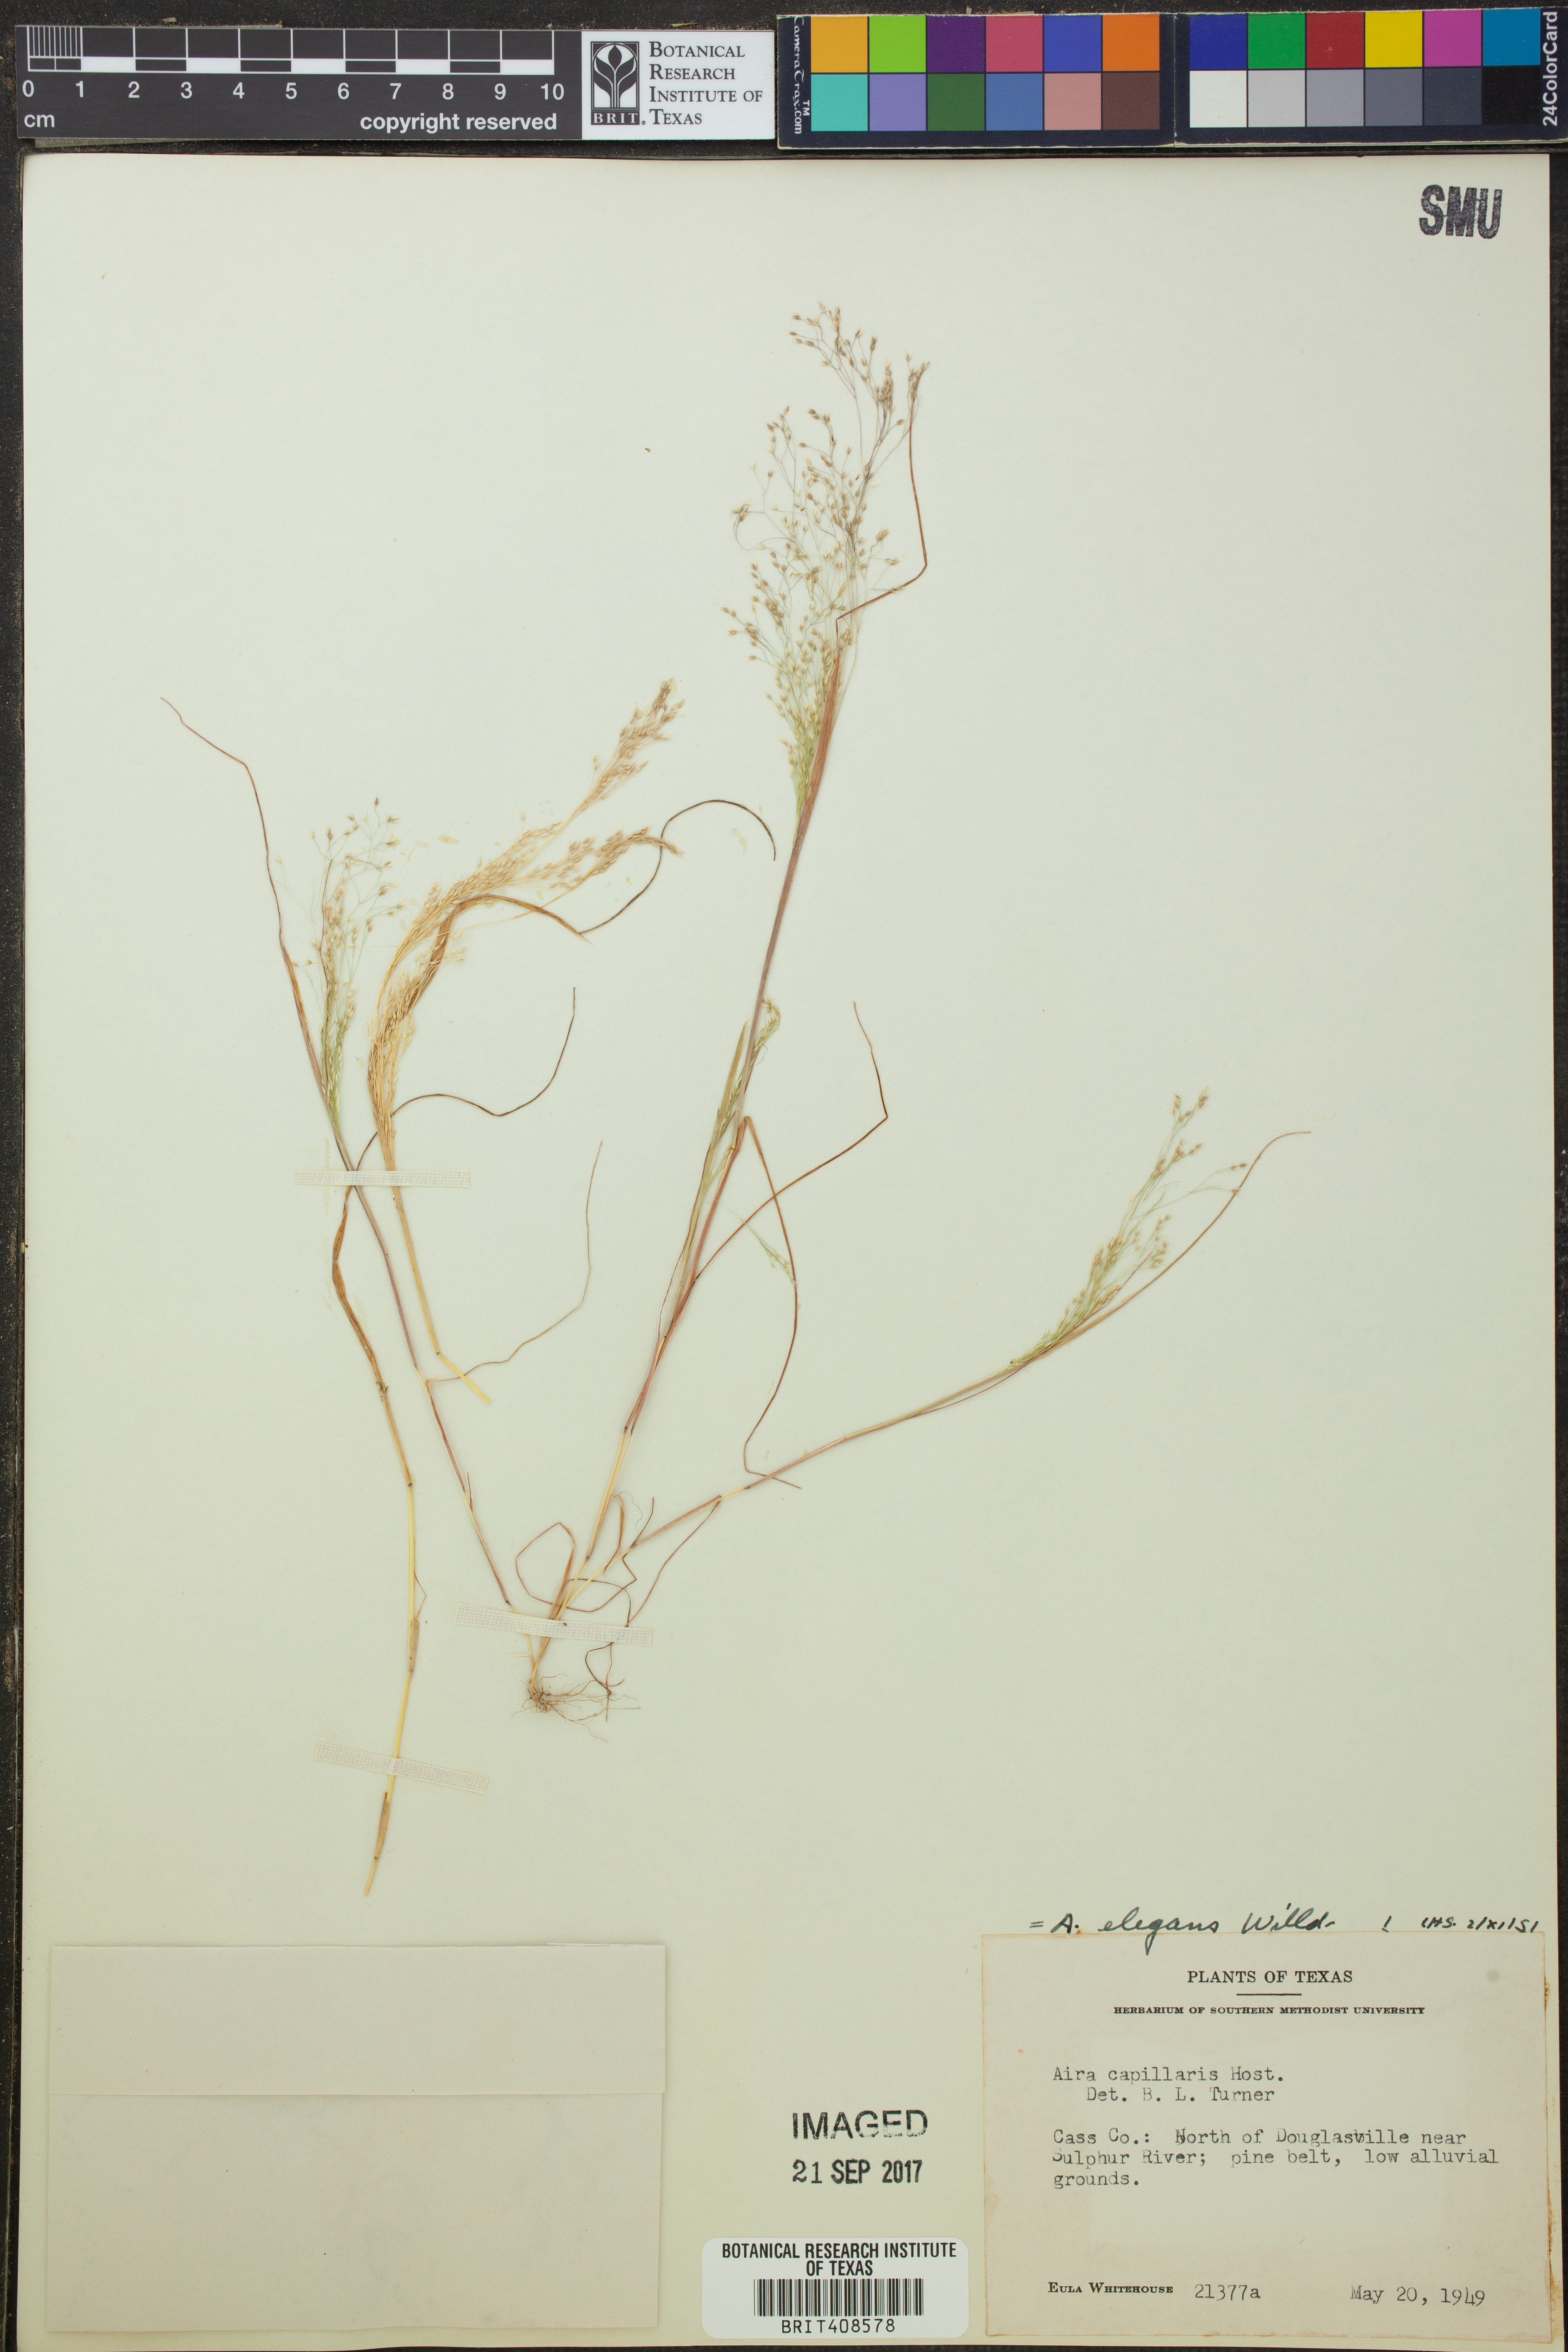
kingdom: Plantae
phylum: Tracheophyta
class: Liliopsida
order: Poales
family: Poaceae
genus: Aira
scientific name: Aira elegans
